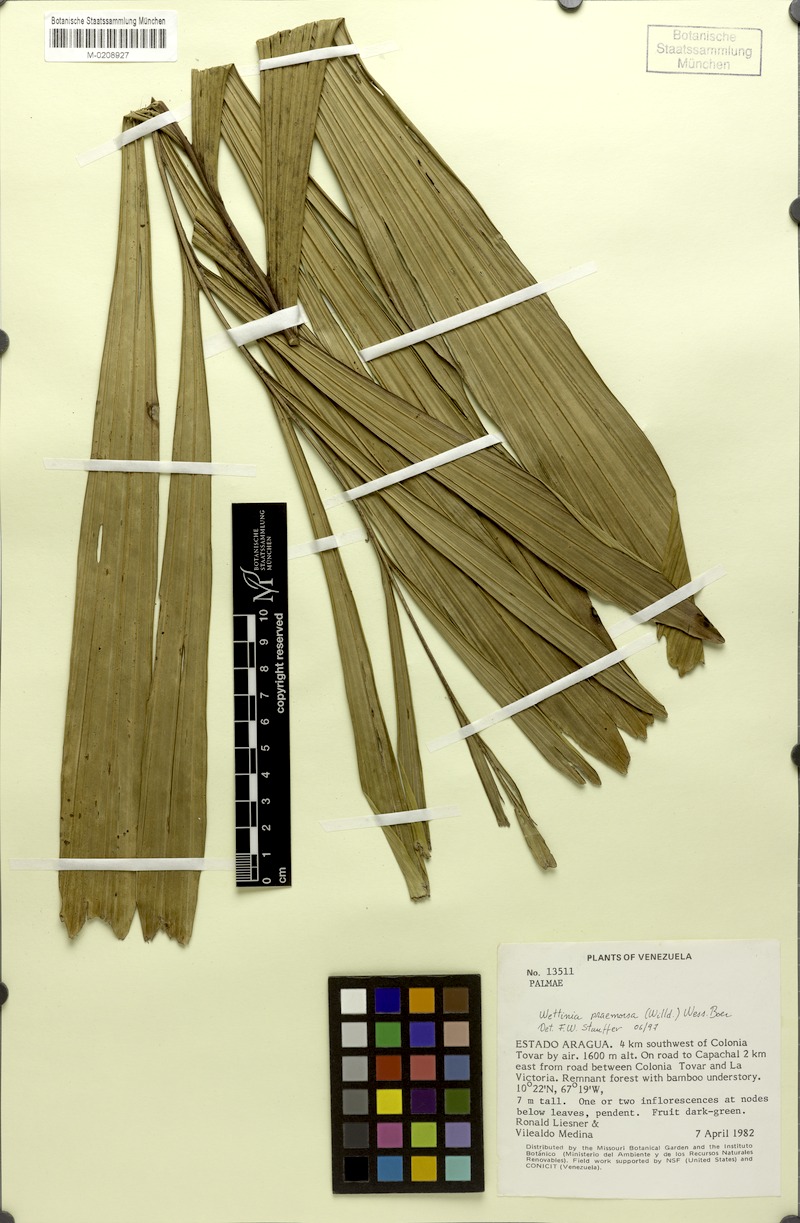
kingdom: Plantae
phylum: Tracheophyta
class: Liliopsida
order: Arecales
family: Arecaceae
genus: Wettinia
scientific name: Wettinia praemorsa
